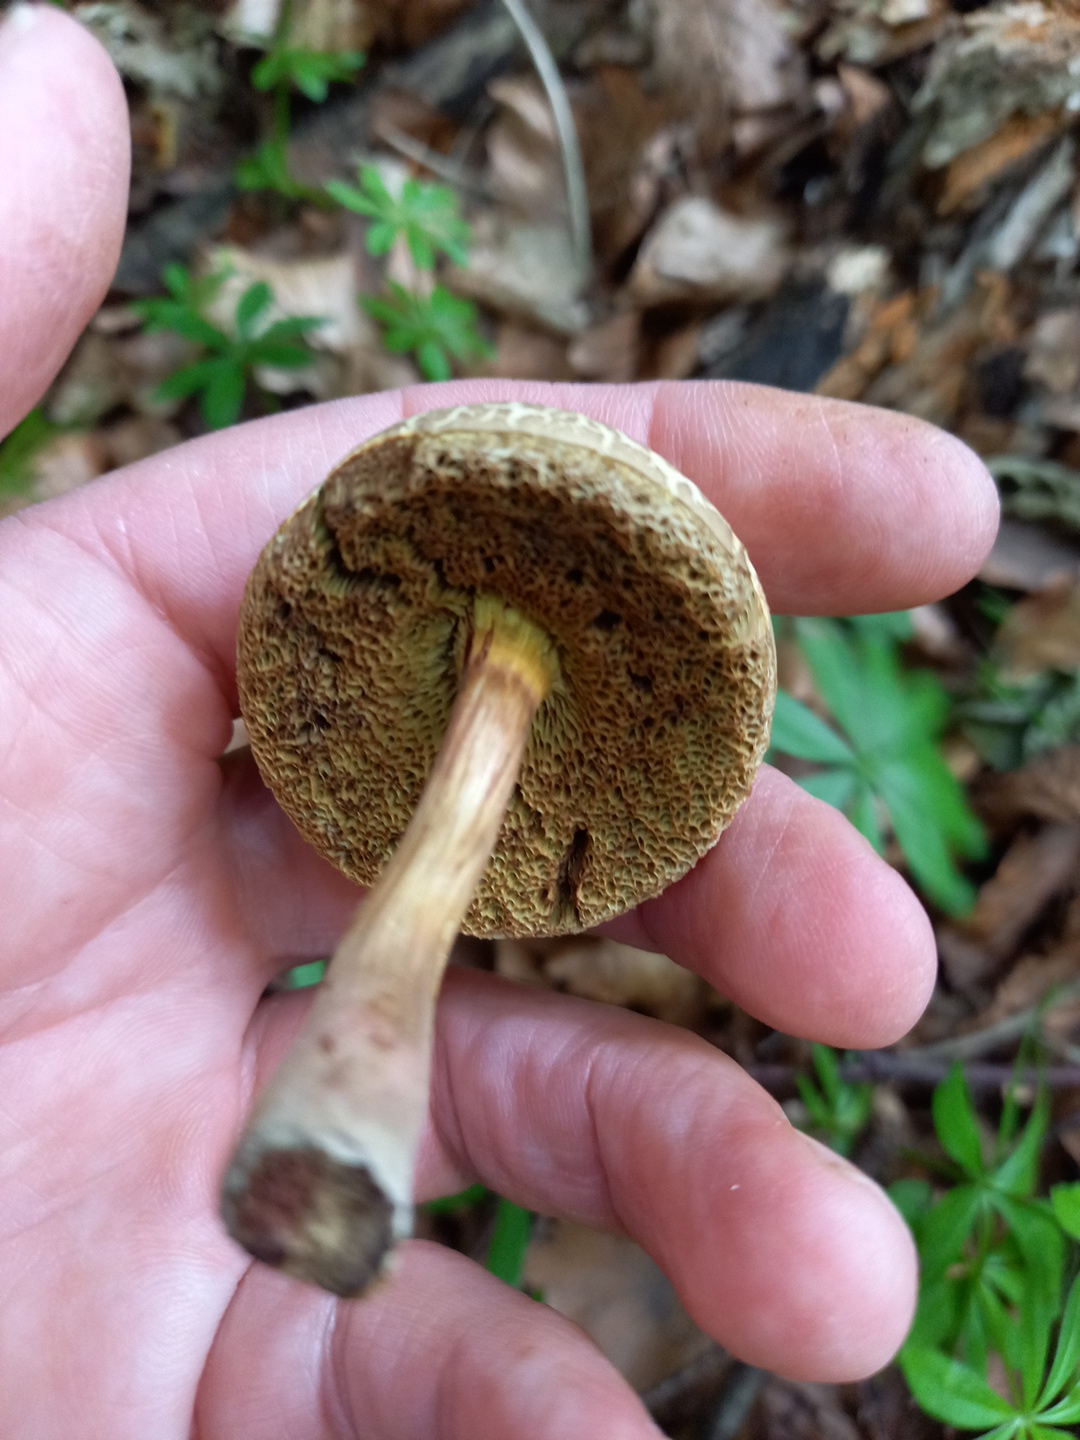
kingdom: Fungi
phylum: Basidiomycota
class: Agaricomycetes
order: Boletales
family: Boletaceae
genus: Xerocomellus
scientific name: Xerocomellus porosporus
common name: hvidsprukken rørhat
